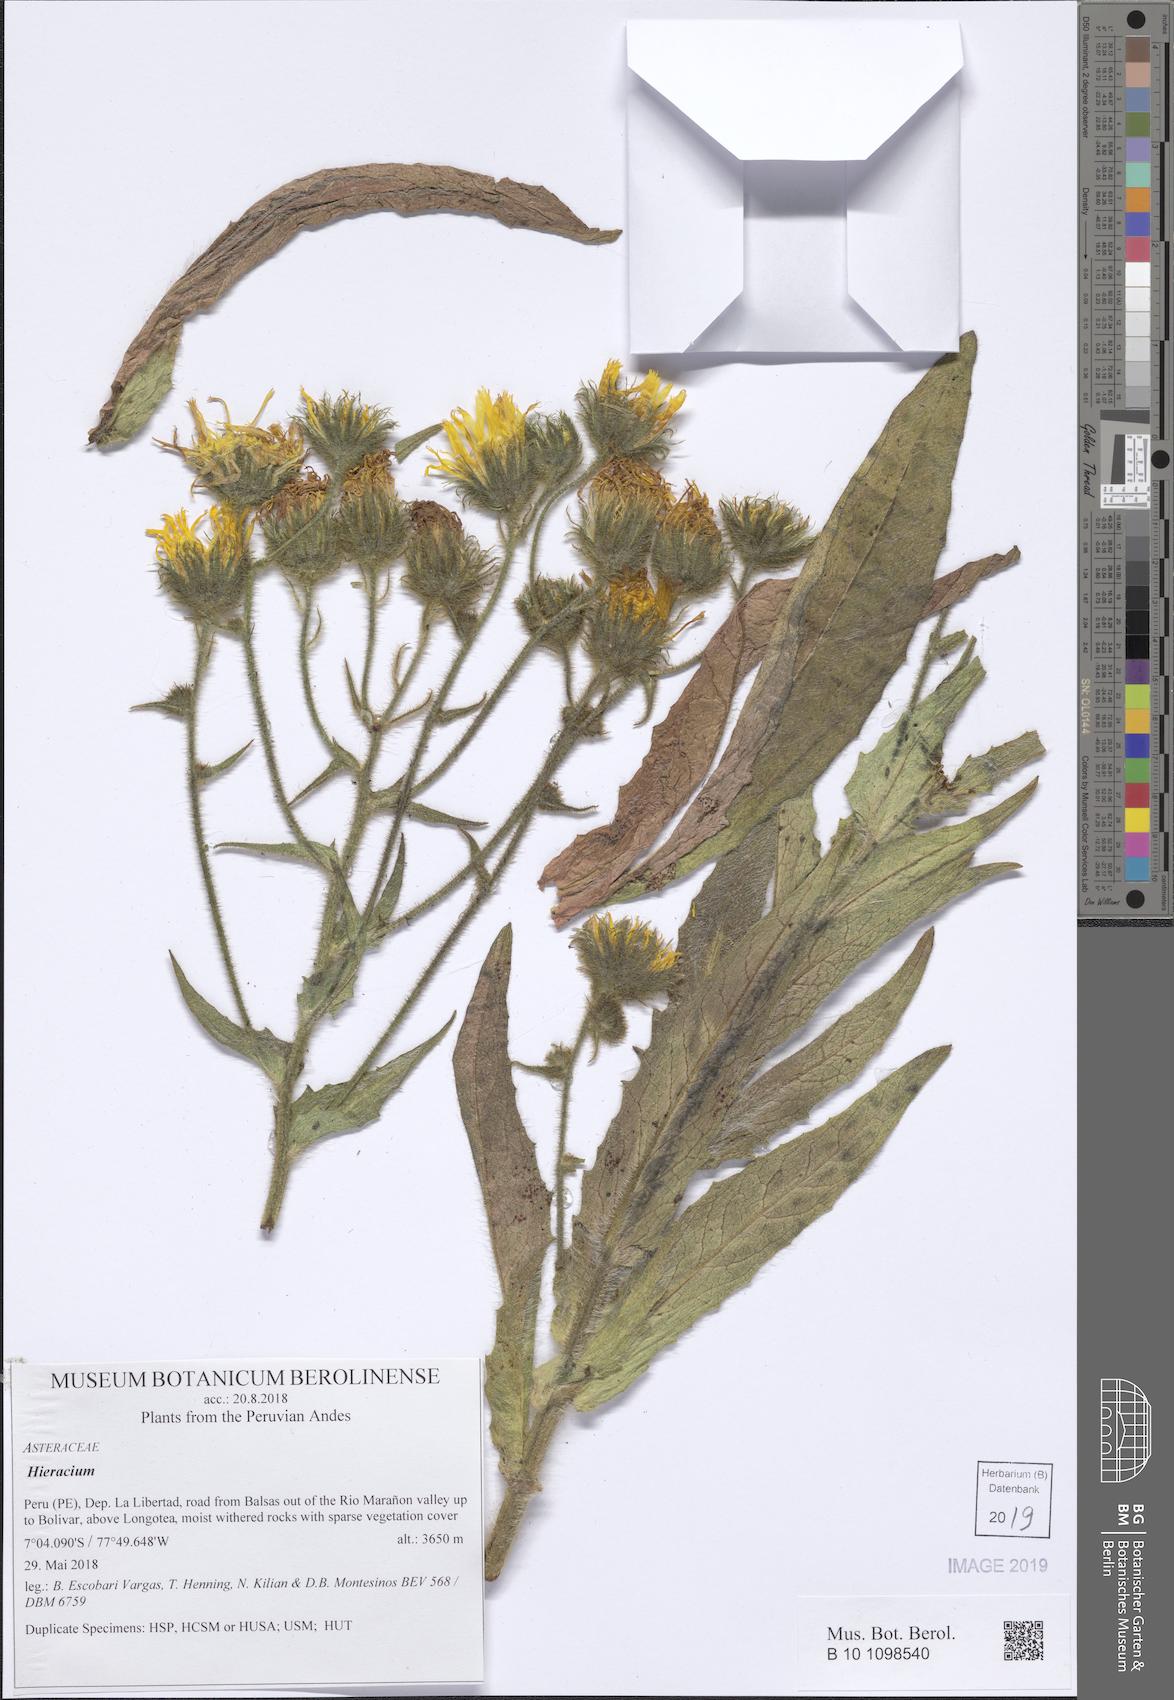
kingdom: Plantae
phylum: Tracheophyta
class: Magnoliopsida
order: Asterales
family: Asteraceae
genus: Hieracium
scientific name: Hieracium
